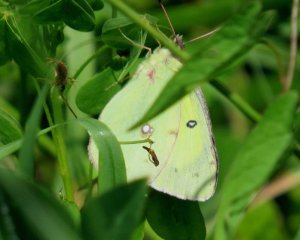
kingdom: Animalia
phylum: Arthropoda
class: Insecta
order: Lepidoptera
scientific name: Lepidoptera
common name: Butterflies
